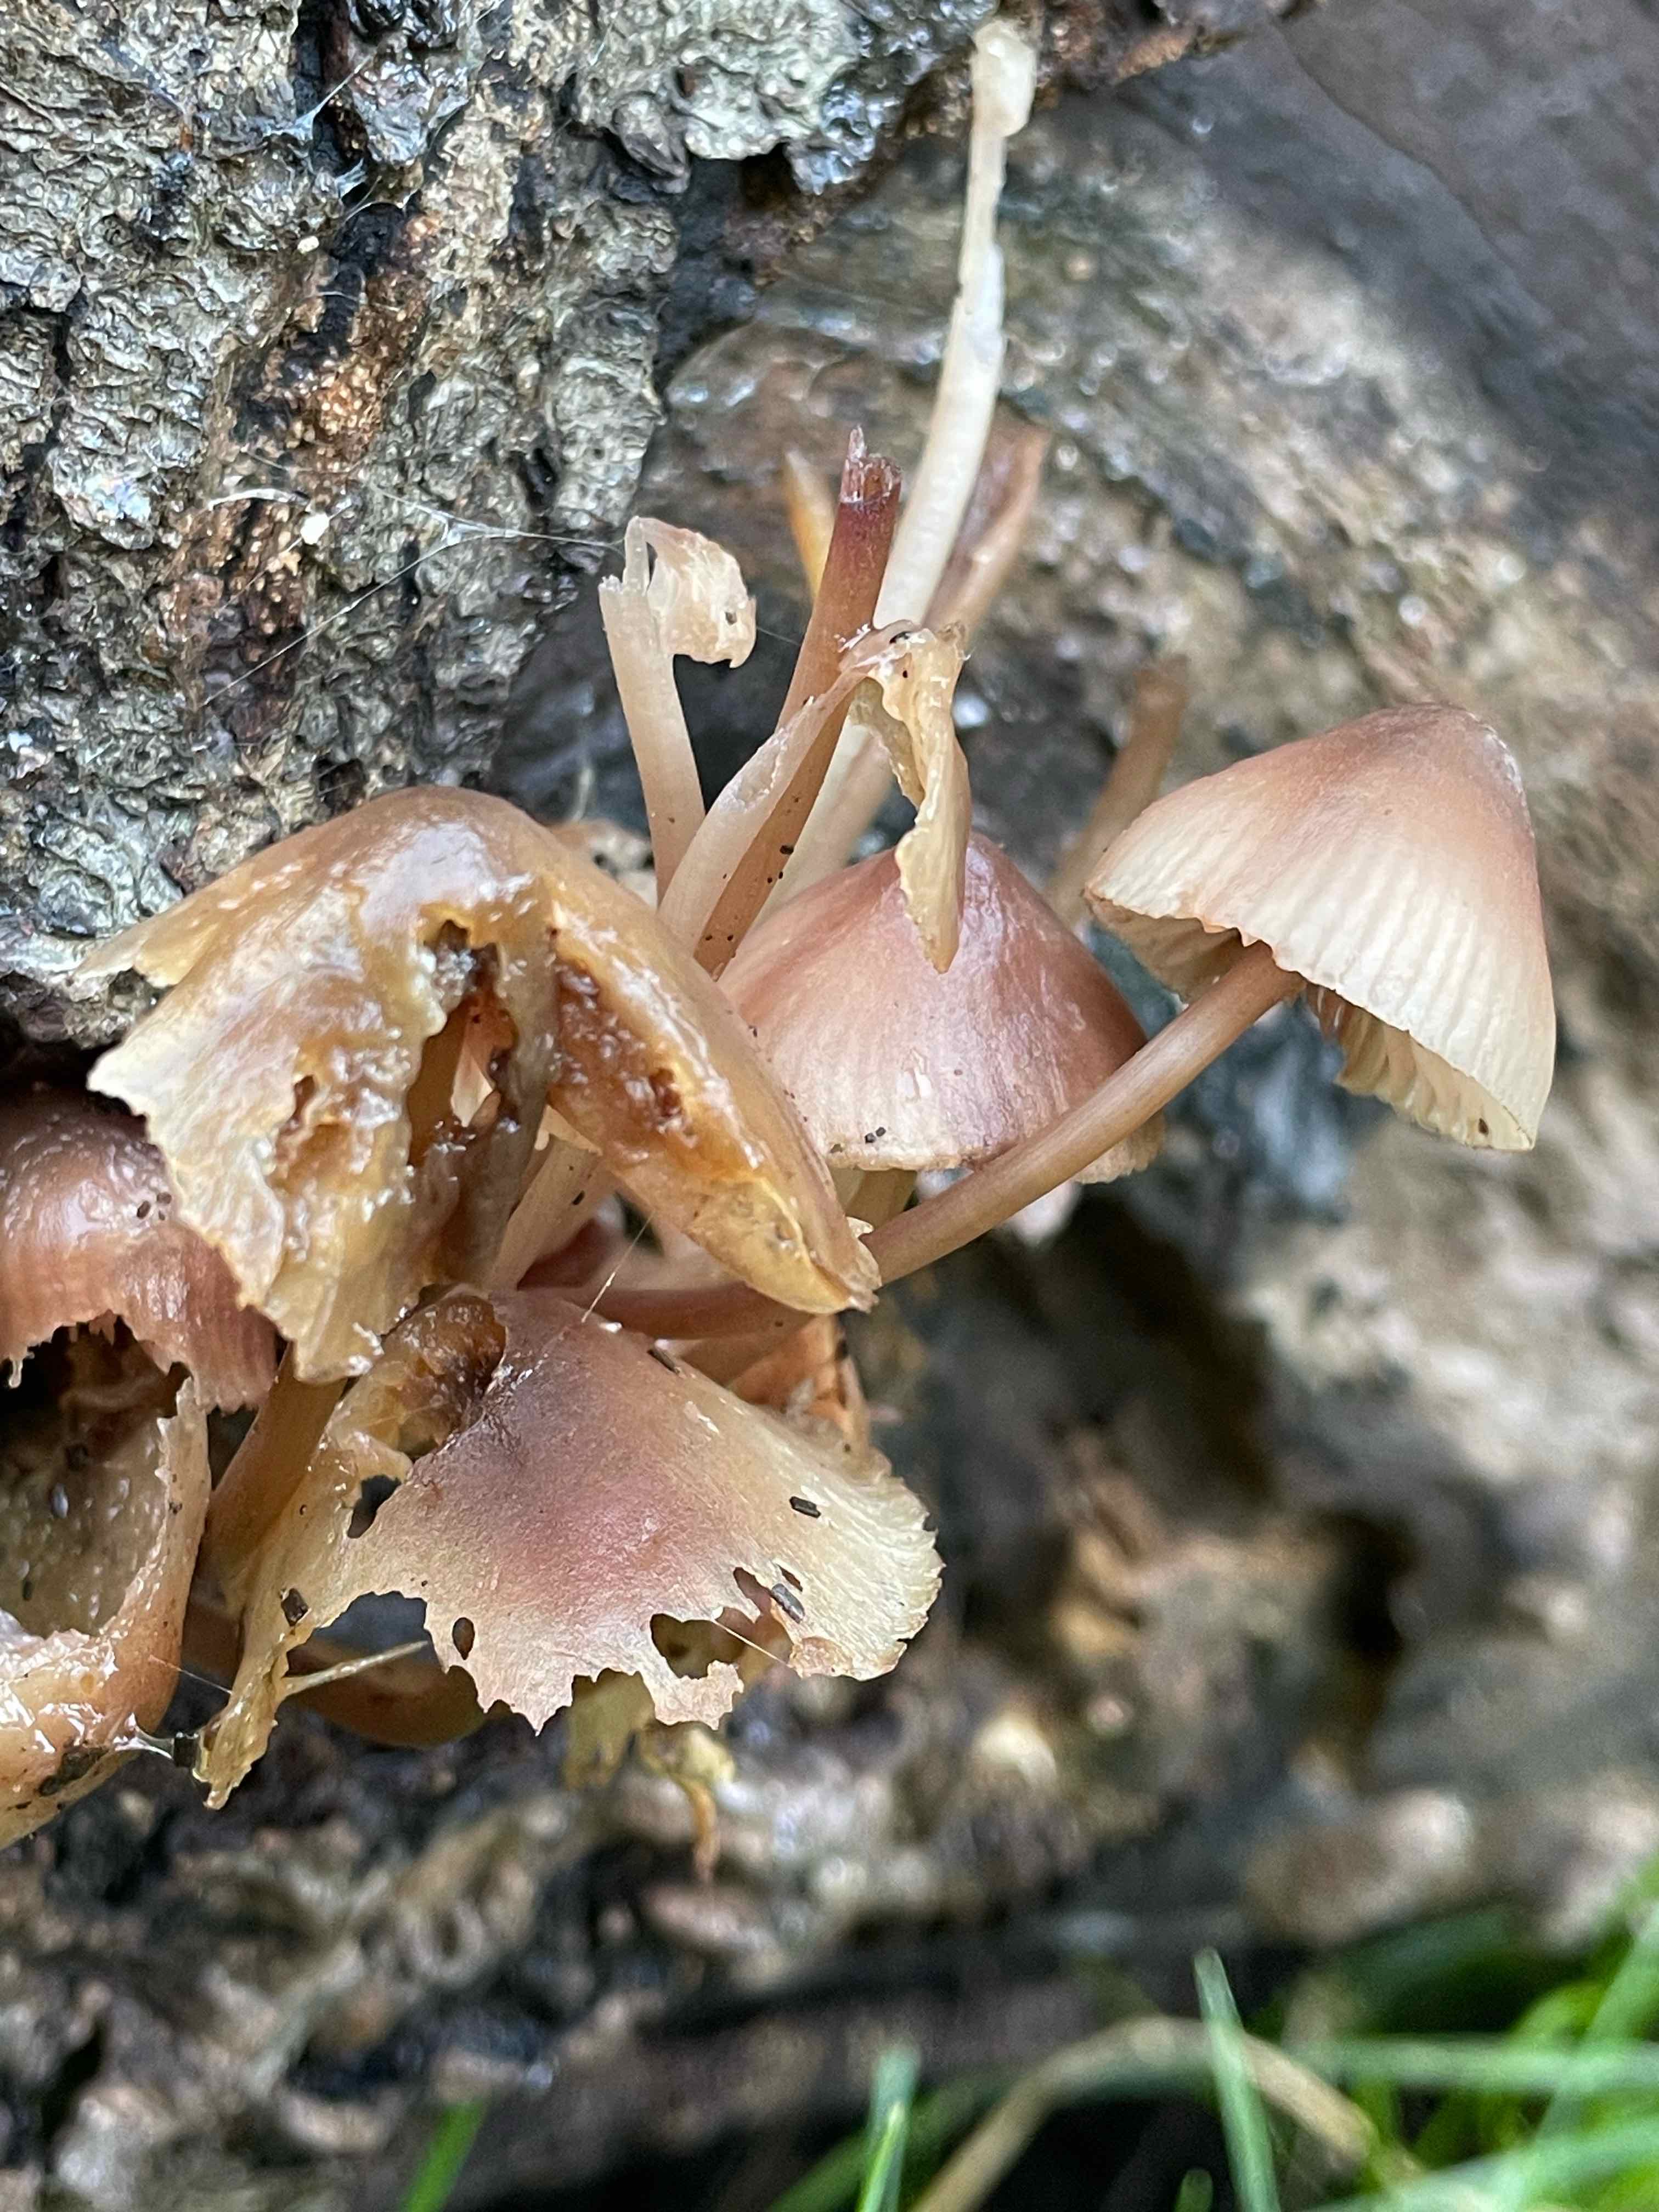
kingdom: Fungi
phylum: Basidiomycota
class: Agaricomycetes
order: Agaricales
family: Mycenaceae
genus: Mycena
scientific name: Mycena haematopus
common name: blødende huesvamp
